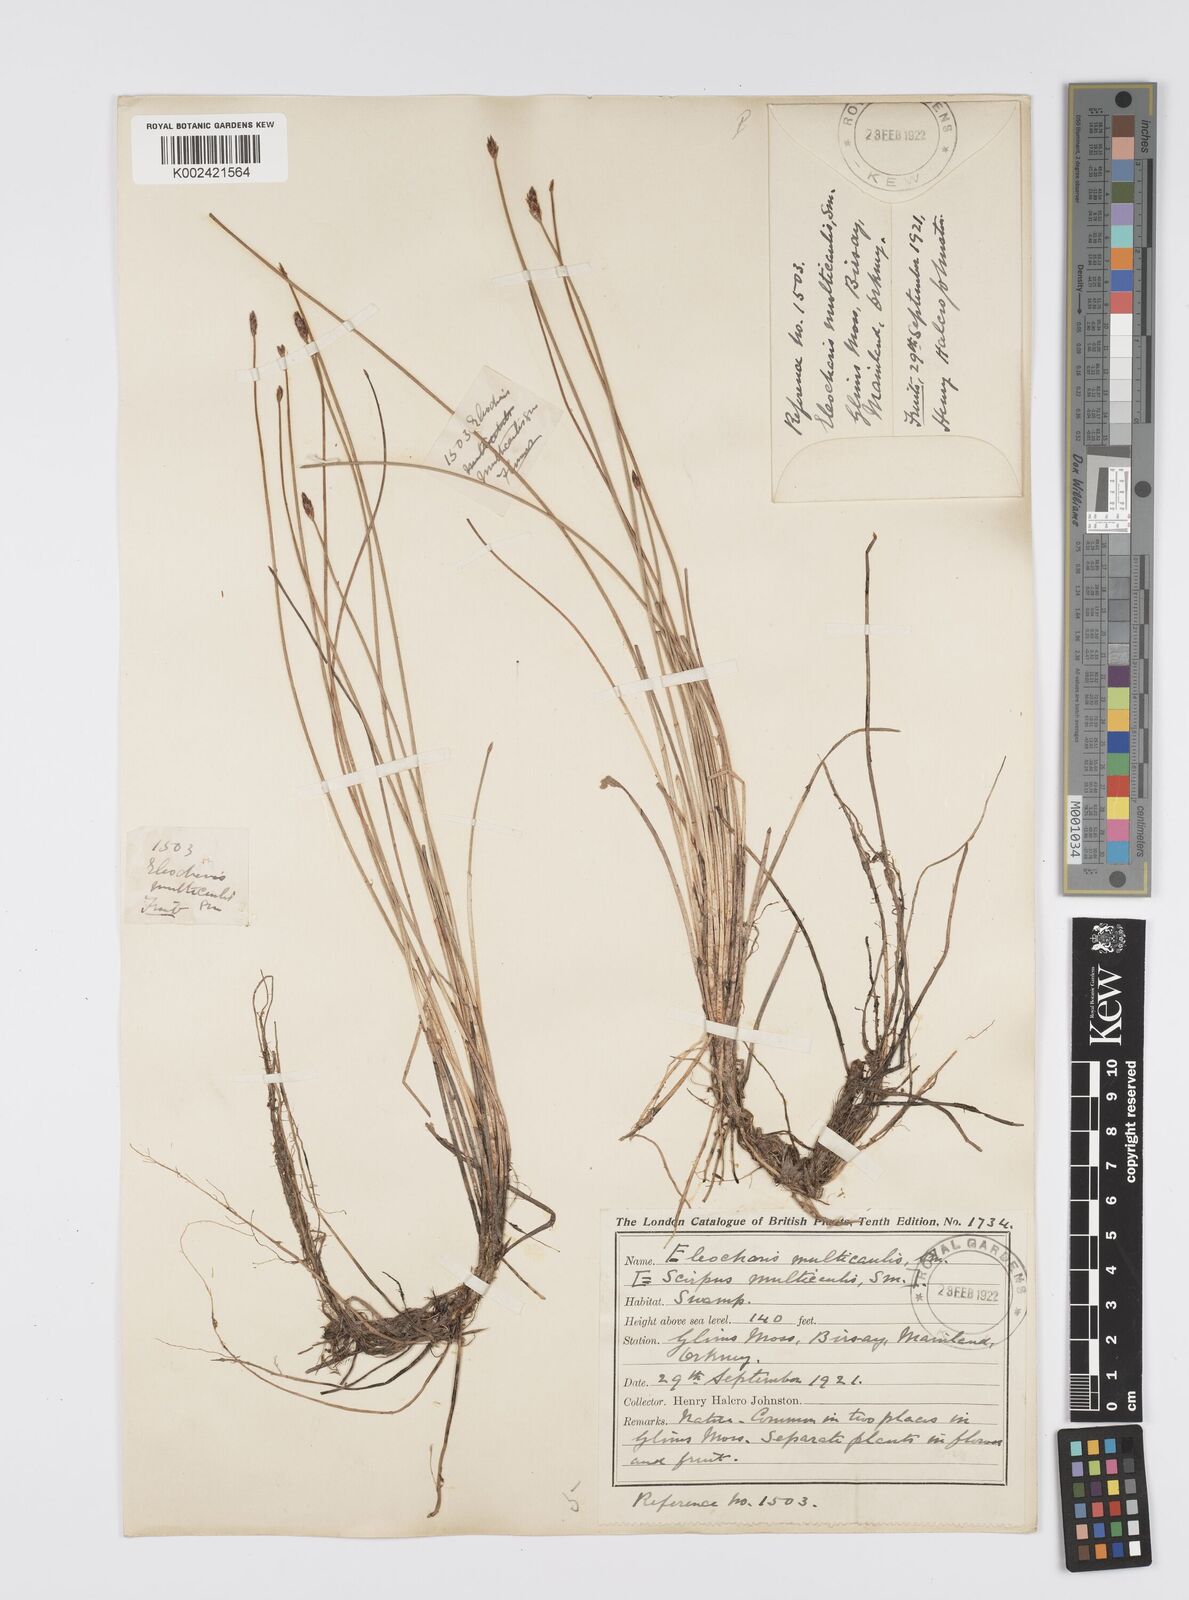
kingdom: Plantae
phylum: Tracheophyta
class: Liliopsida
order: Poales
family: Cyperaceae
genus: Eleocharis
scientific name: Eleocharis multicaulis
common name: Many-stalked spike-rush
